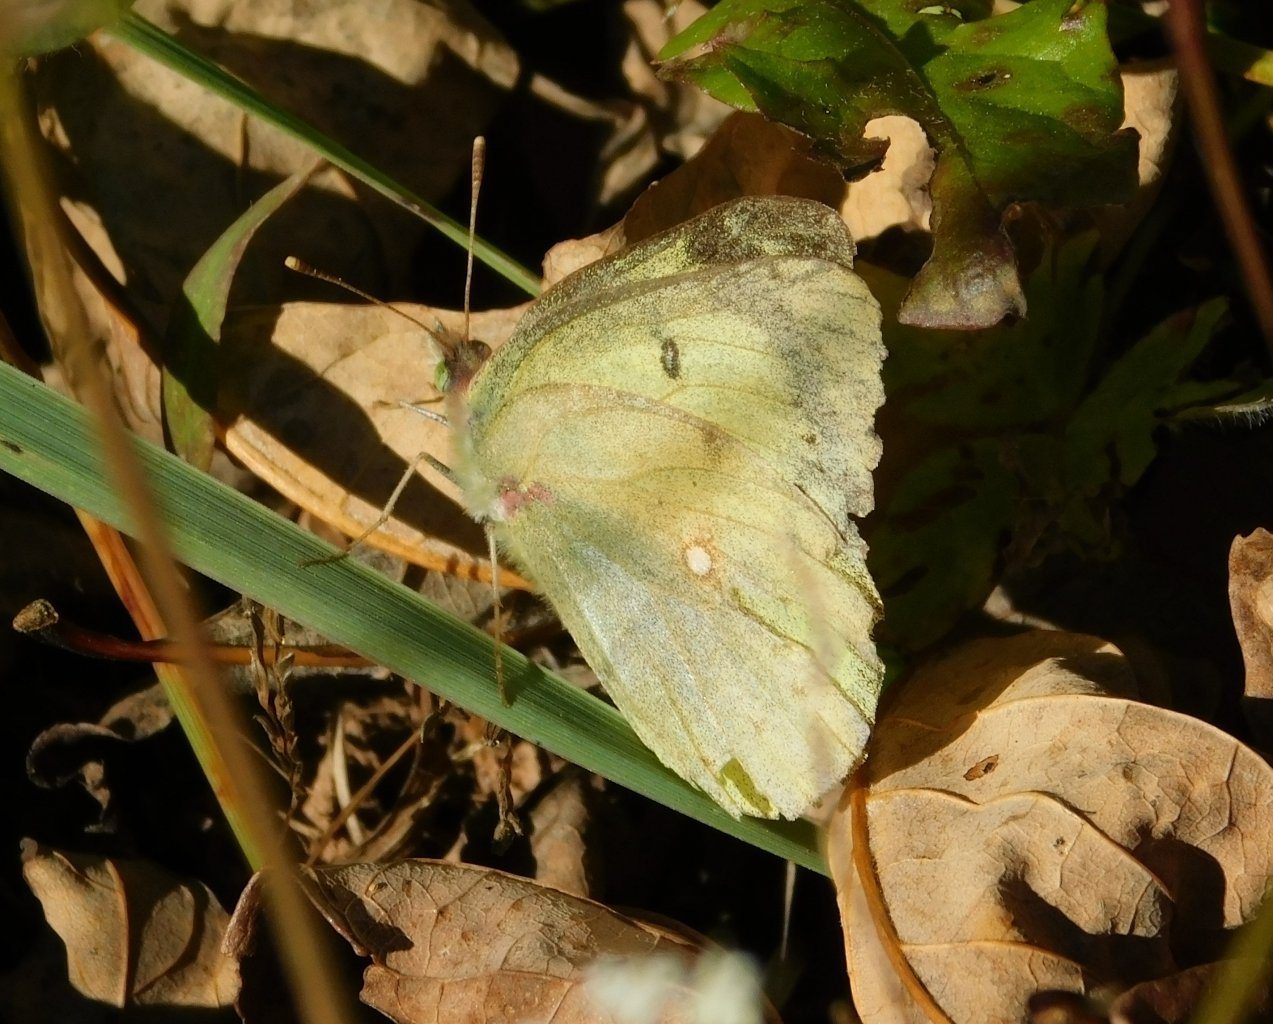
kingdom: Animalia
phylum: Arthropoda
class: Insecta
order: Lepidoptera
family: Pieridae
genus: Colias
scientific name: Colias philodice
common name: Clouded Sulphur
